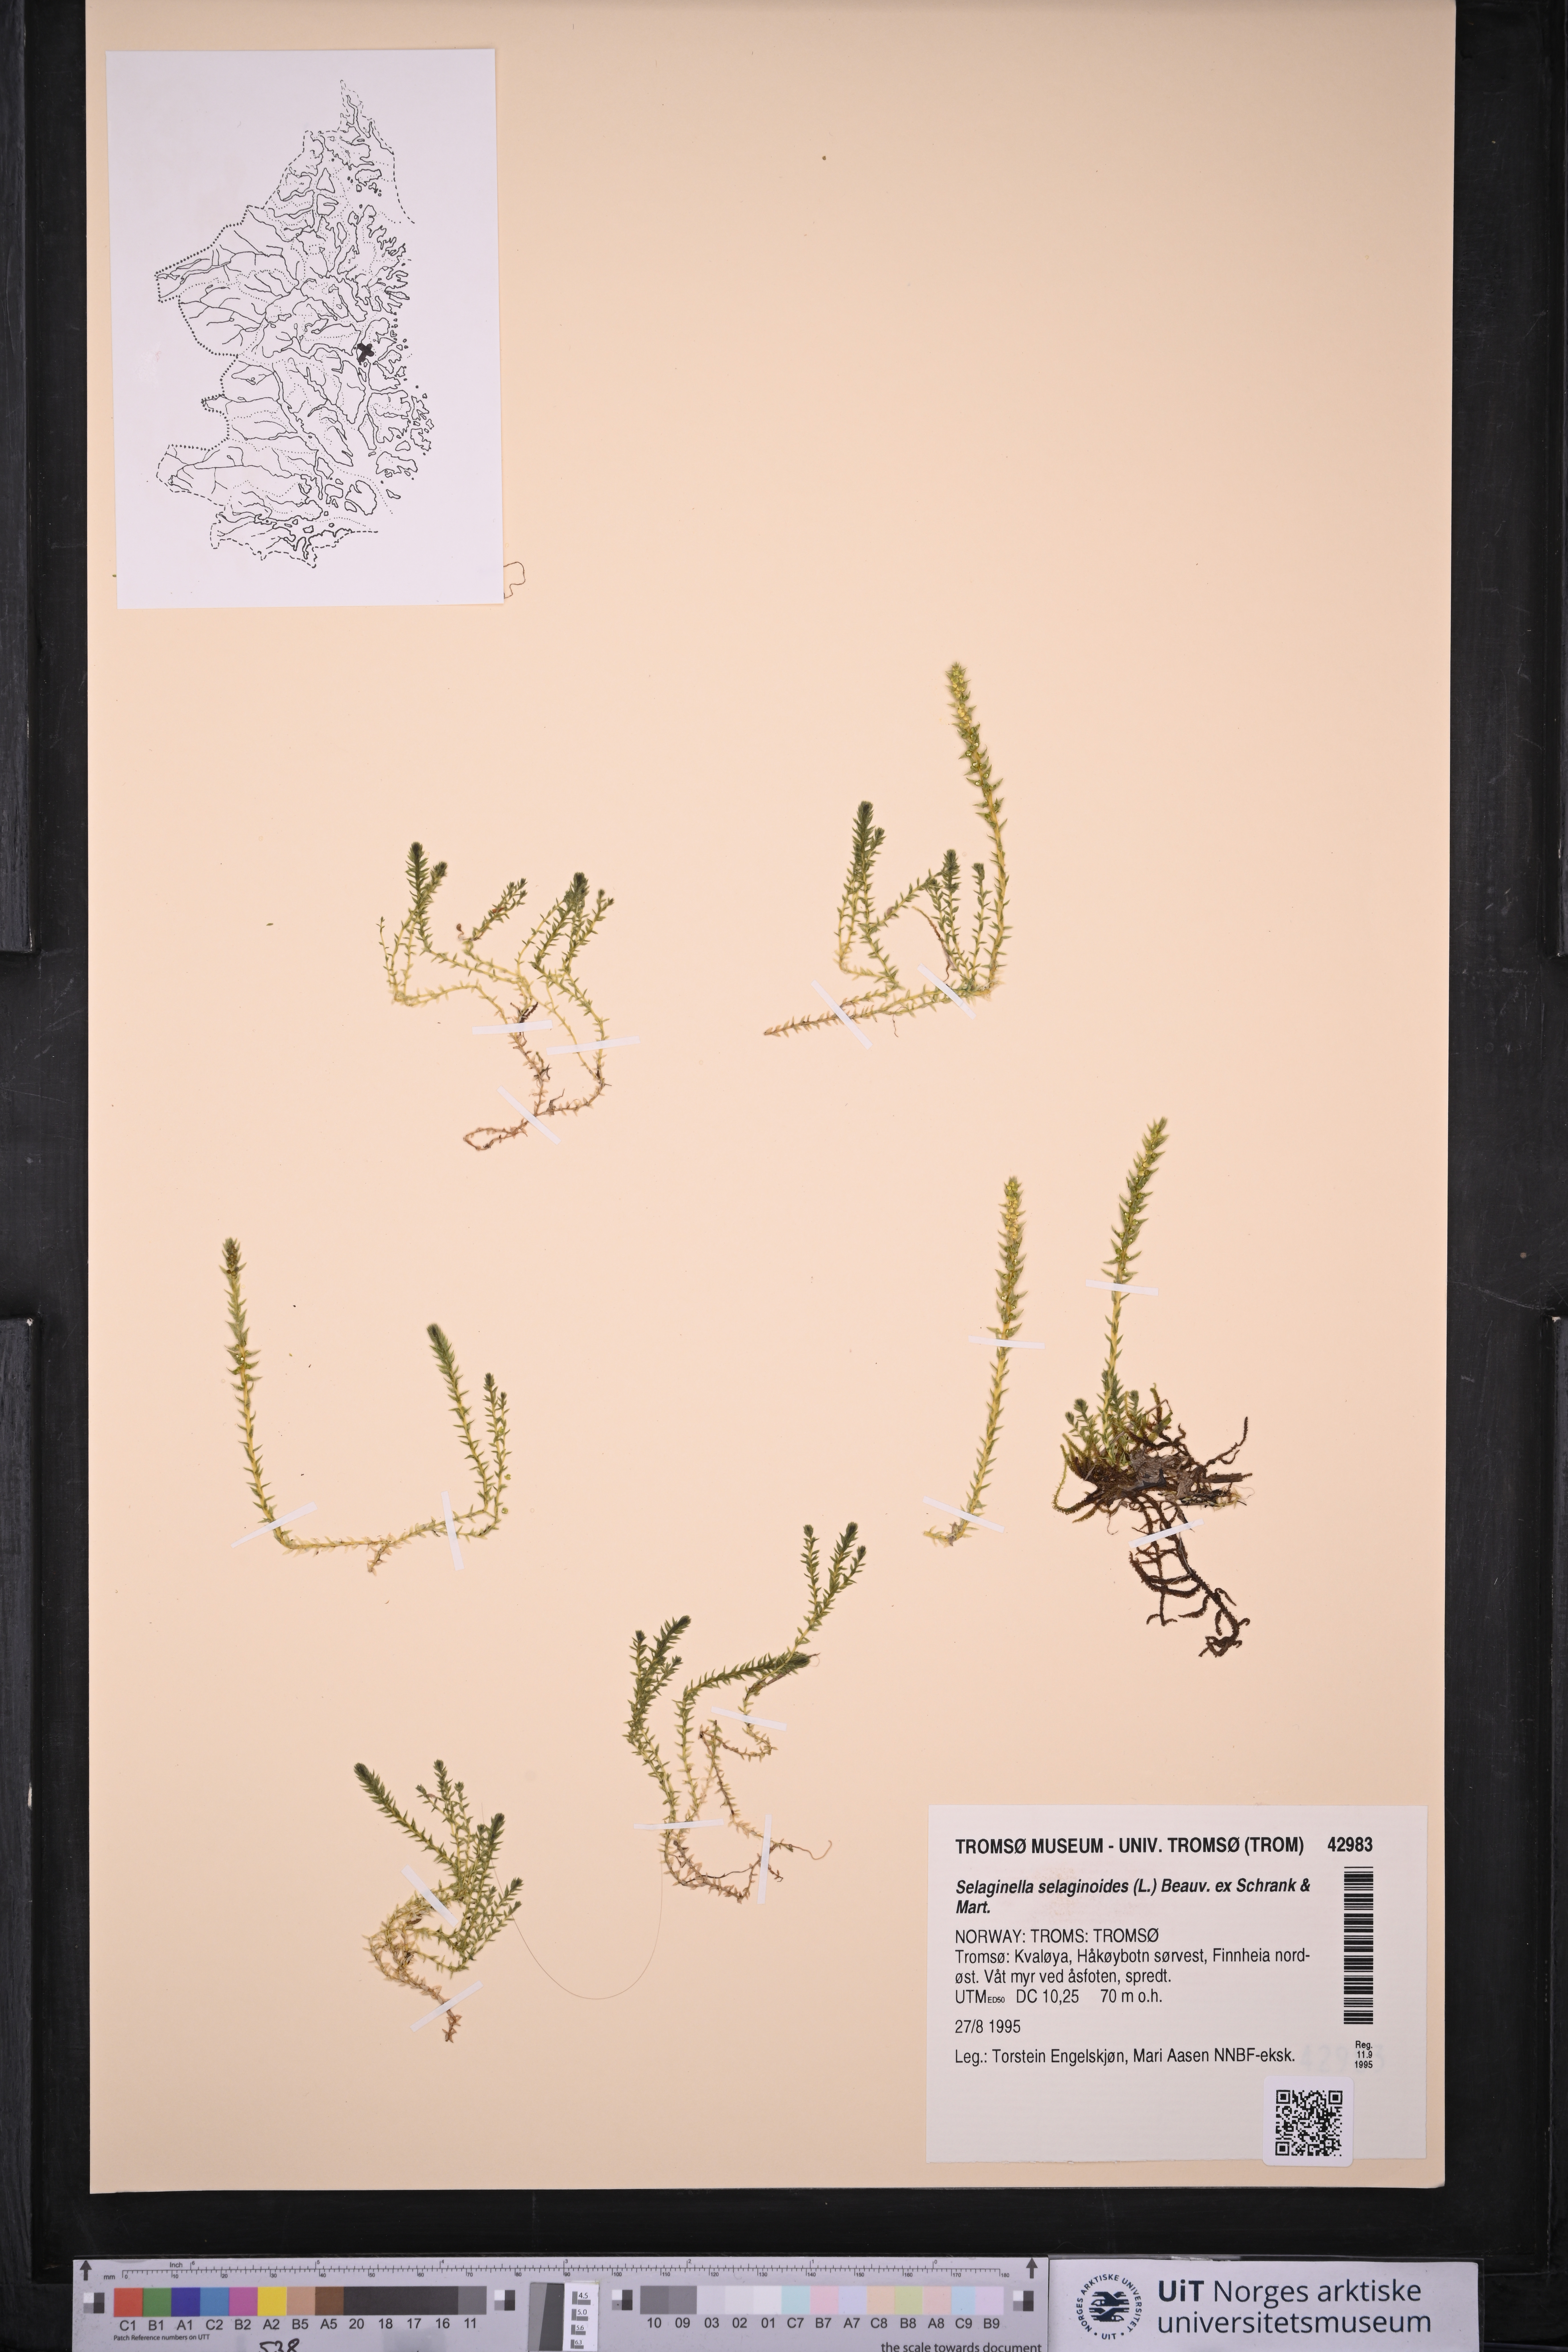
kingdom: Plantae
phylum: Tracheophyta
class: Lycopodiopsida
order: Selaginellales
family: Selaginellaceae
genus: Selaginella
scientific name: Selaginella selaginoides
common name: Prickly mountain-moss
